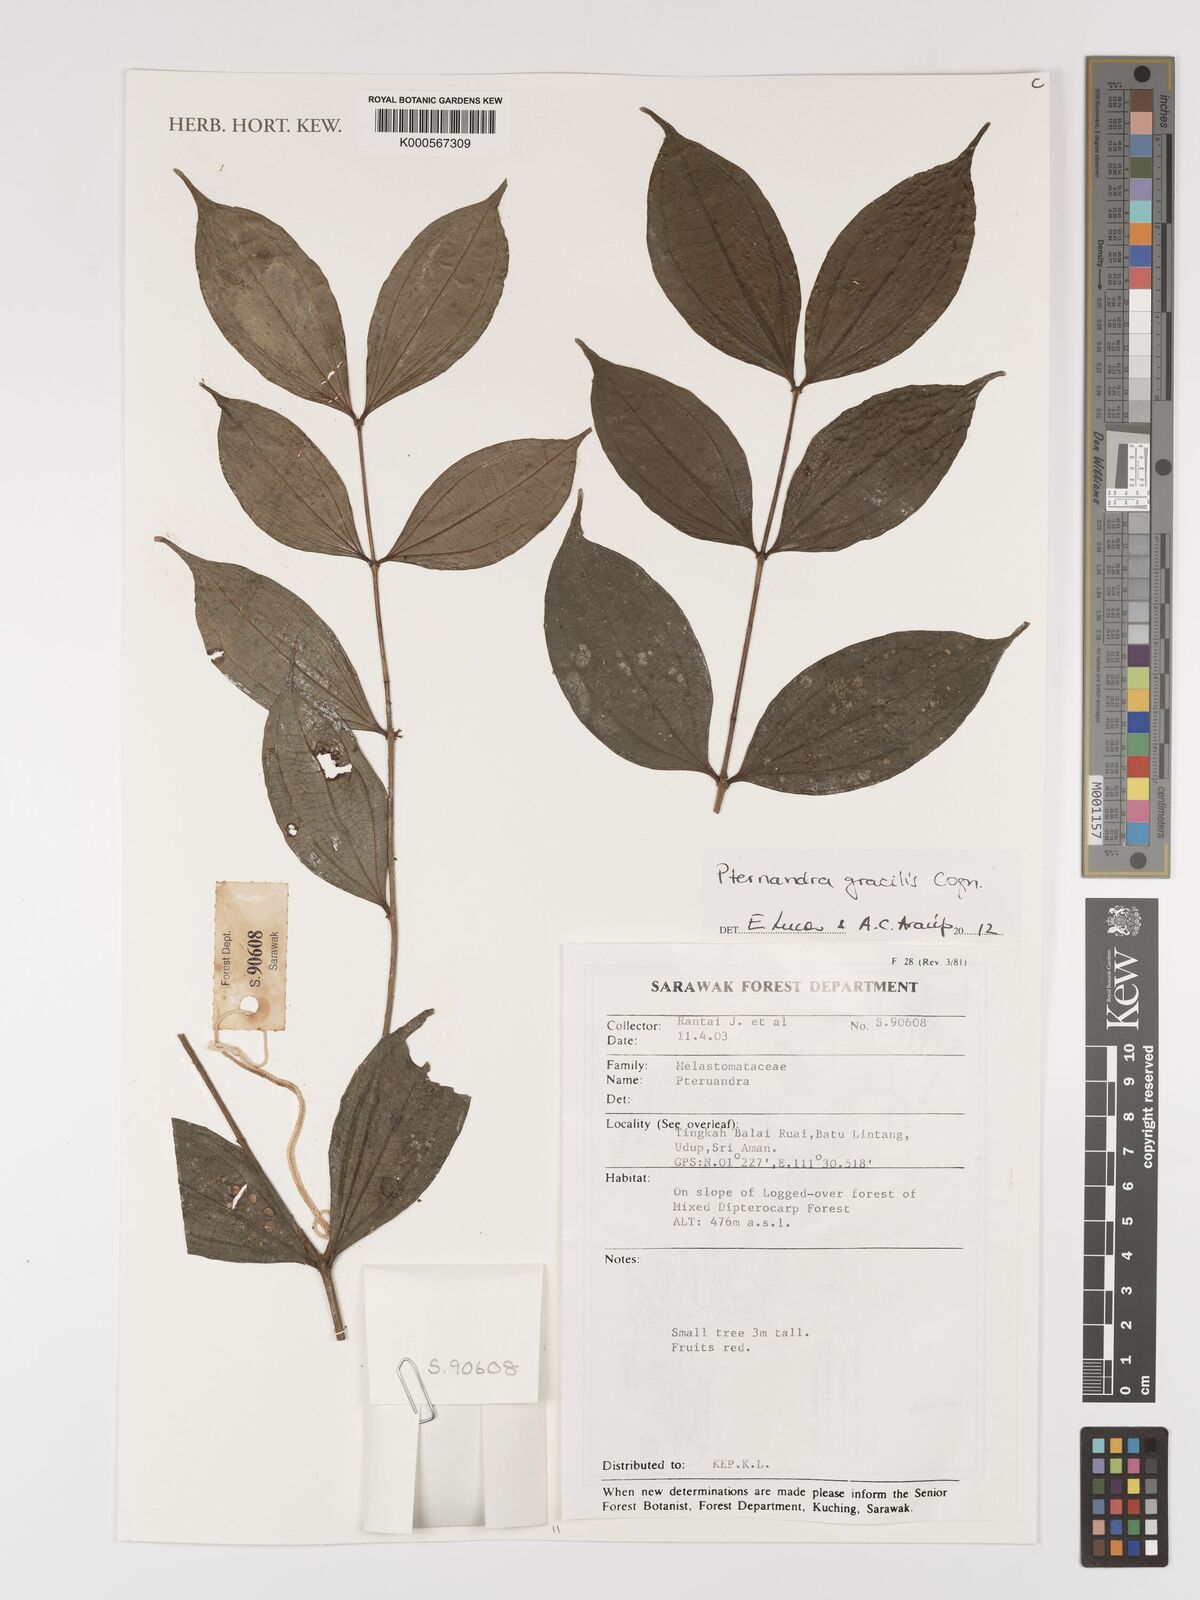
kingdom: Plantae
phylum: Tracheophyta
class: Magnoliopsida
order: Myrtales
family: Melastomataceae
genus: Pternandra
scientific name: Pternandra gracilis
